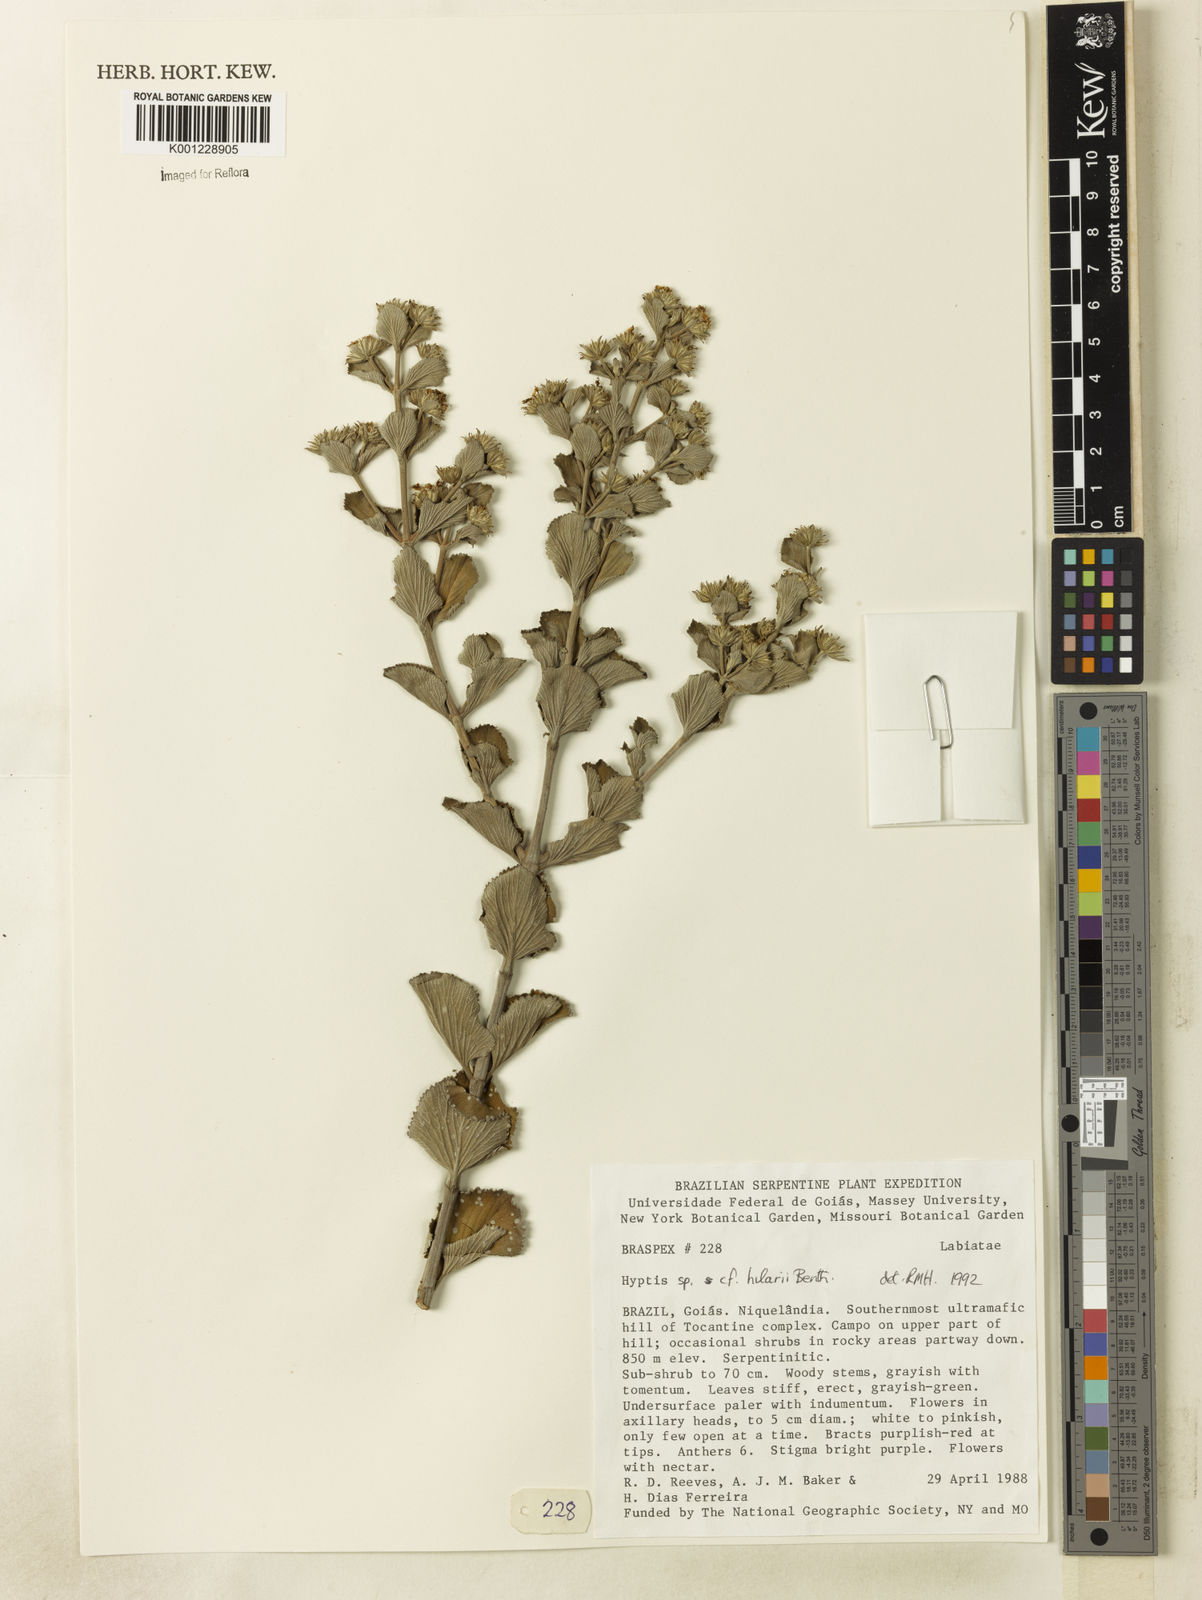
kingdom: Plantae
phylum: Tracheophyta
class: Magnoliopsida
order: Lamiales
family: Lamiaceae
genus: Hyptis
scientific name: Hyptis hilarii
